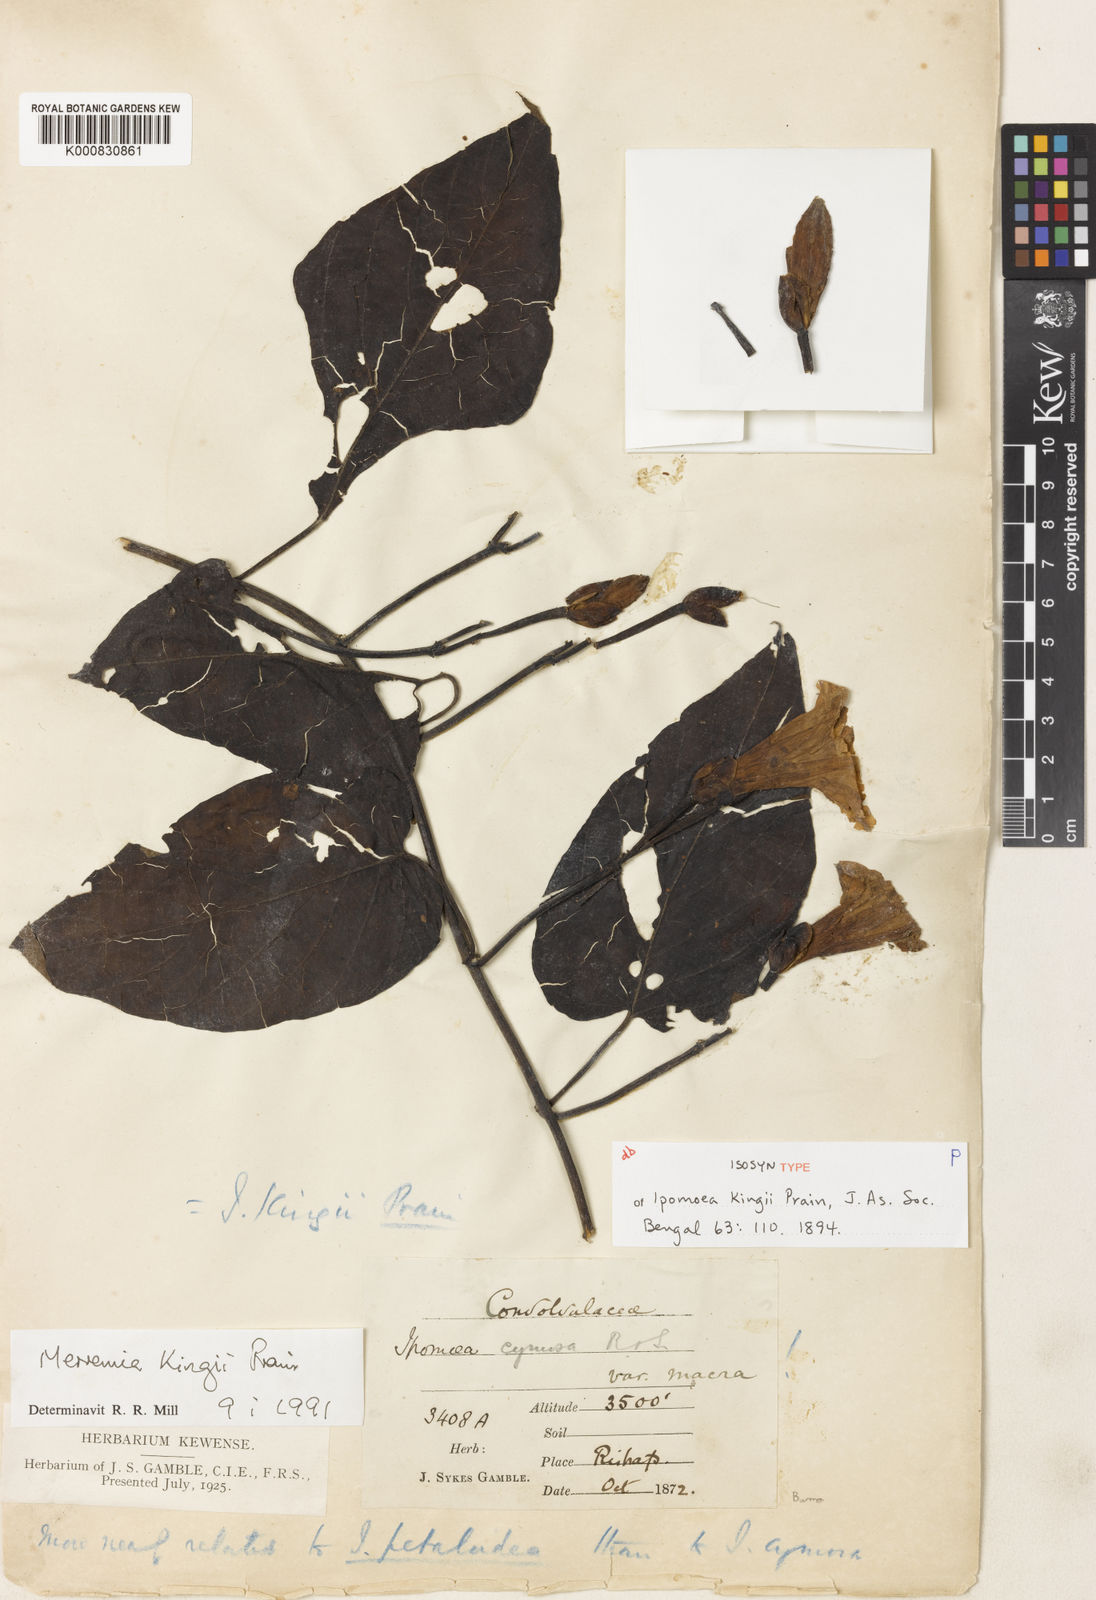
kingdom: Plantae
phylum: Tracheophyta
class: Magnoliopsida
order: Solanales
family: Convolvulaceae
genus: Camonea
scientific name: Camonea
